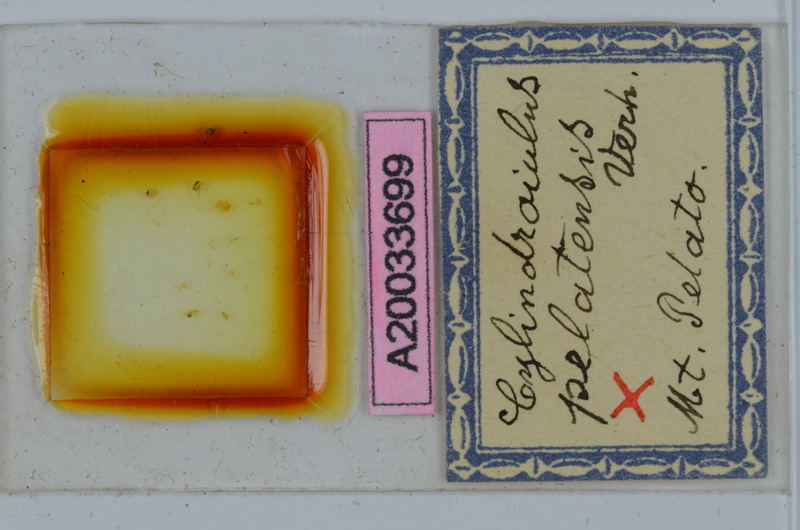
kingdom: Animalia
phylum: Arthropoda
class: Diplopoda
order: Julida
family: Julidae
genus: Cylindroiulus
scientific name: Cylindroiulus pelatensis
